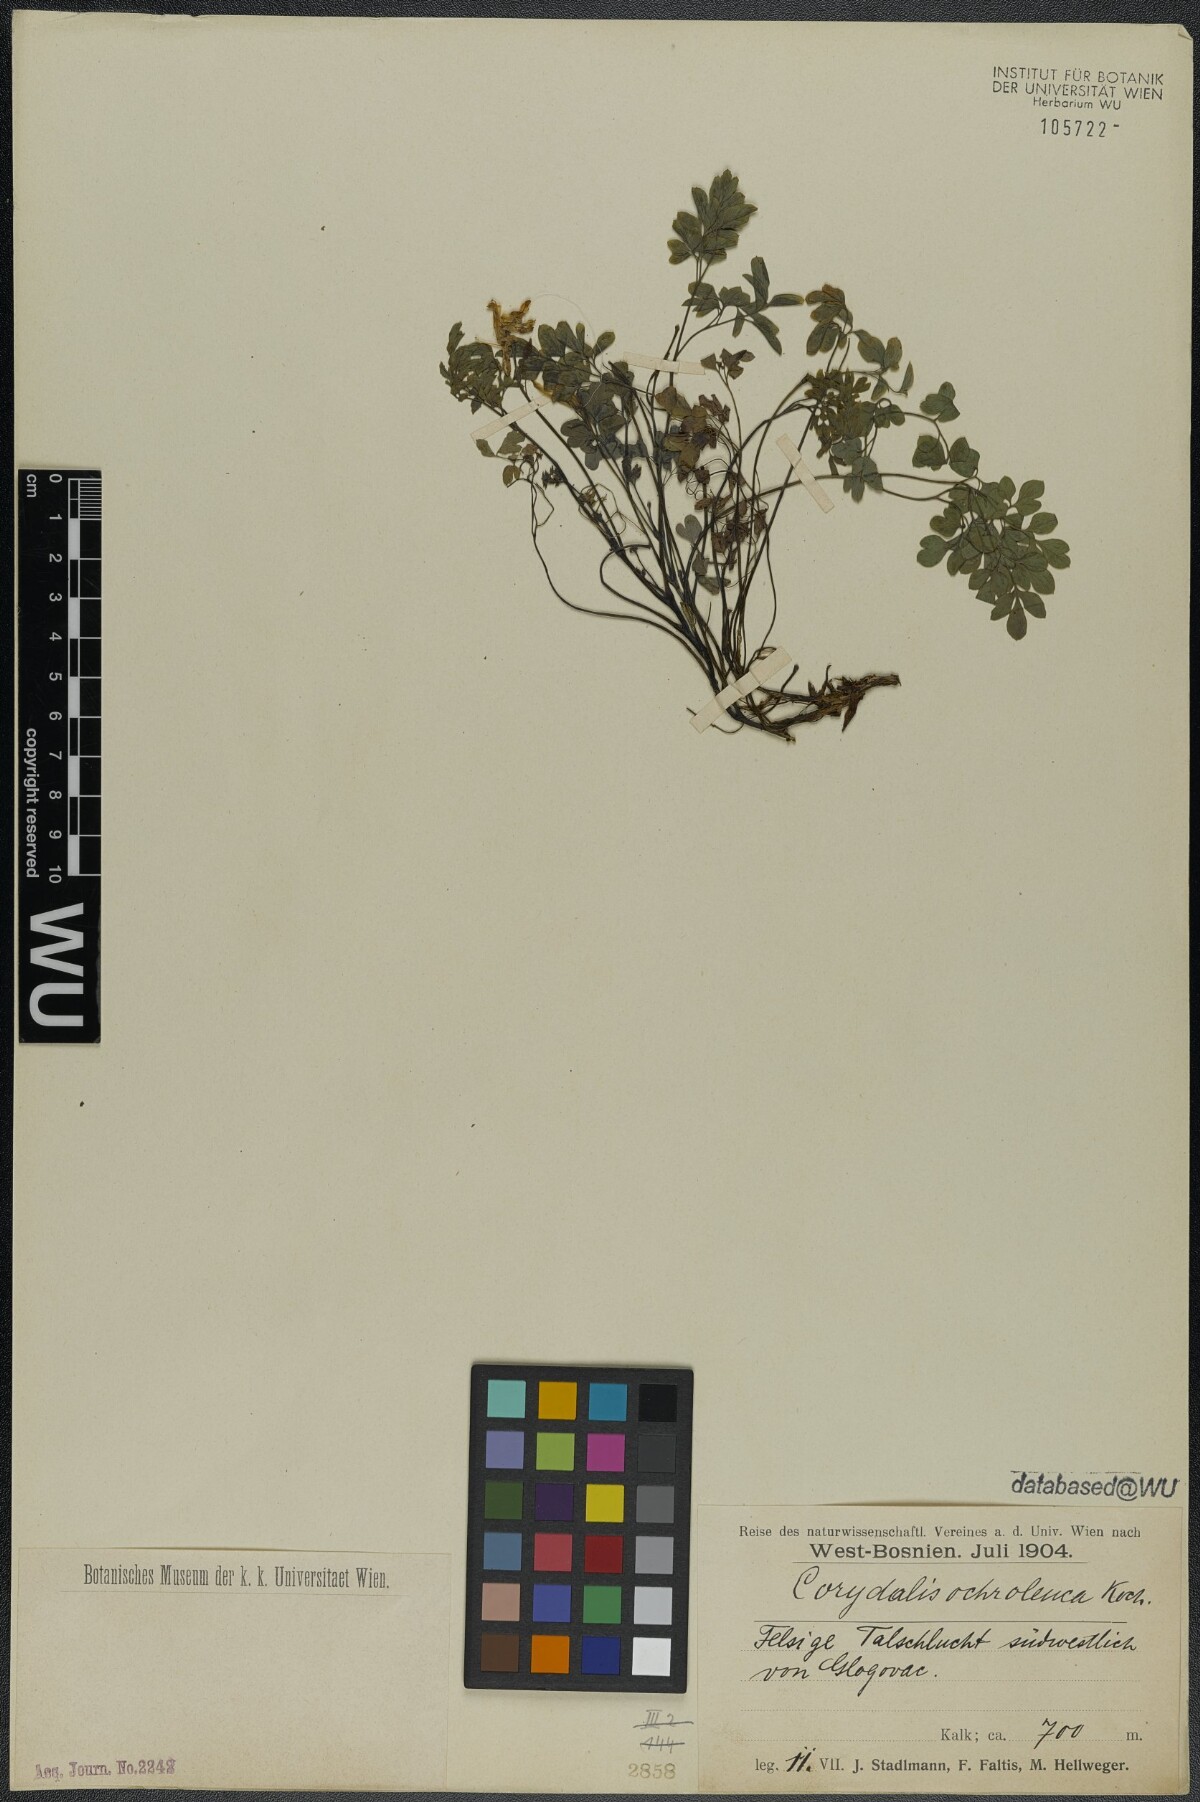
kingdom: Plantae
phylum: Tracheophyta
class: Magnoliopsida
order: Ranunculales
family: Papaveraceae
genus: Pseudofumaria
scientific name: Pseudofumaria alba
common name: Pale corydalis
